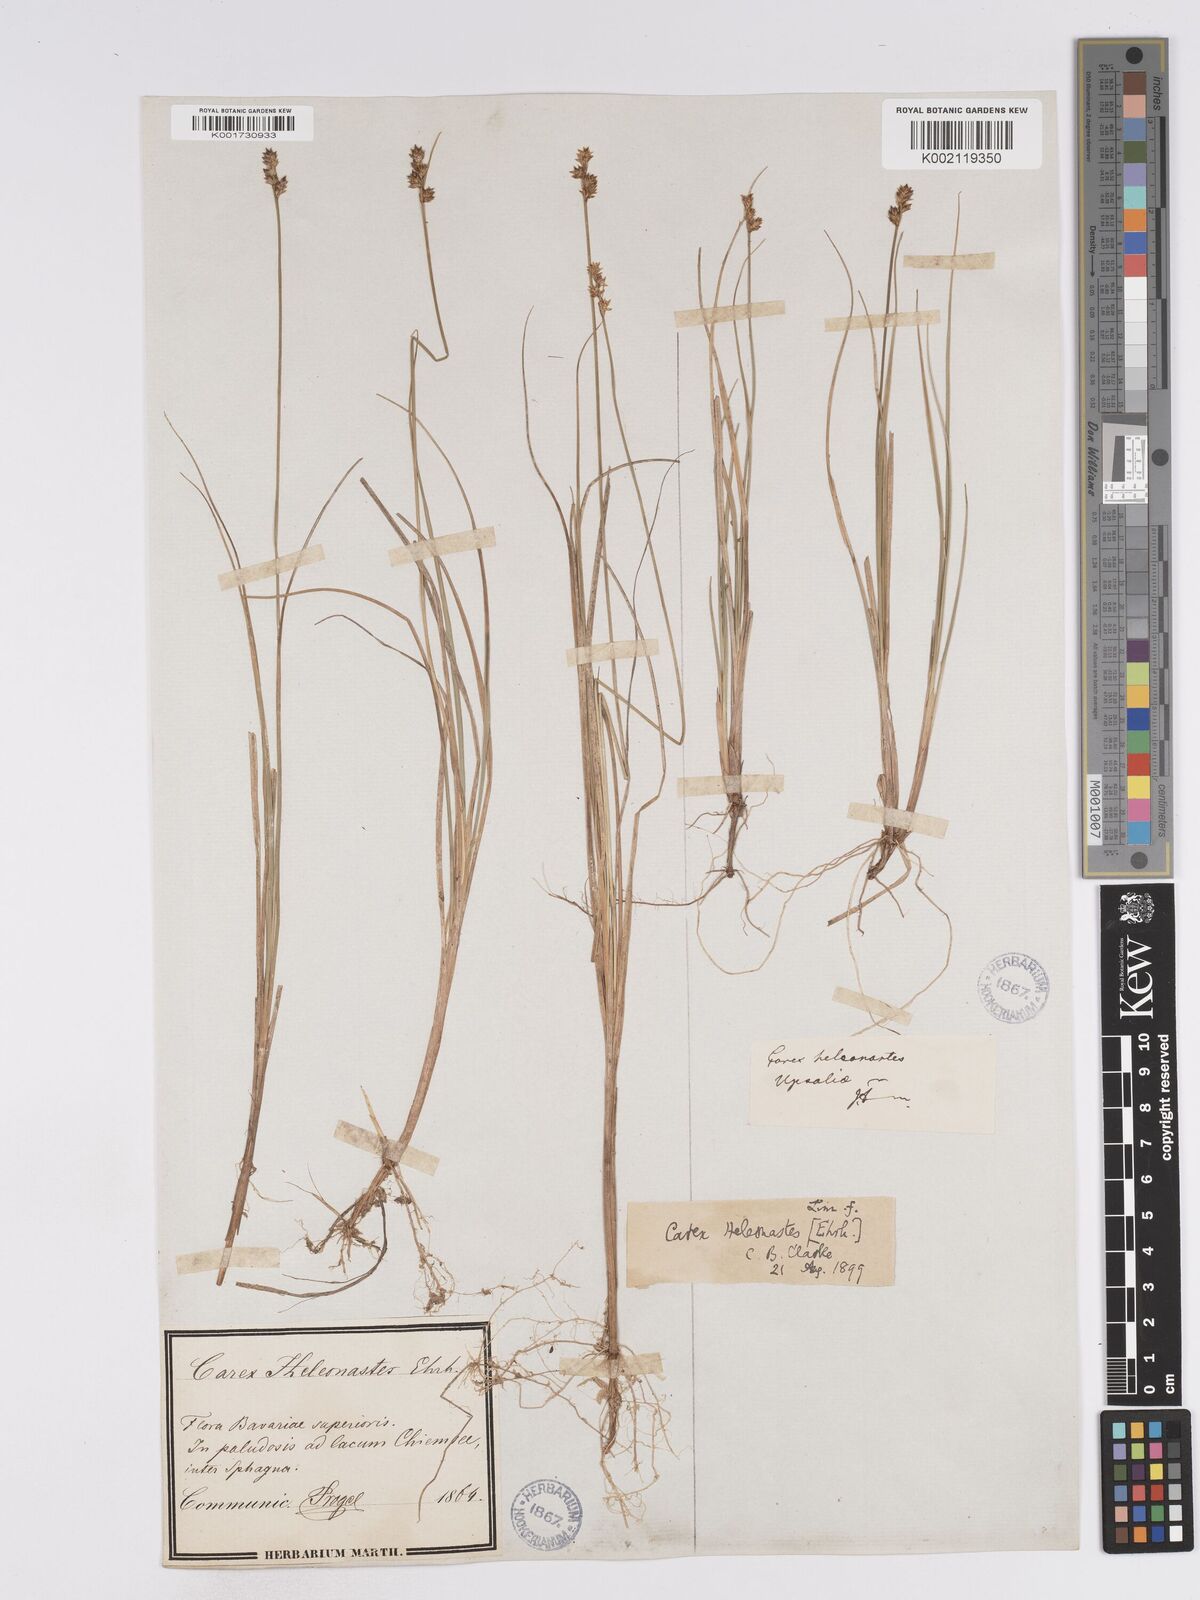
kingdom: Plantae
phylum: Tracheophyta
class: Liliopsida
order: Poales
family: Cyperaceae
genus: Carex
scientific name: Carex heleonastes
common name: Hudson bay sedge
